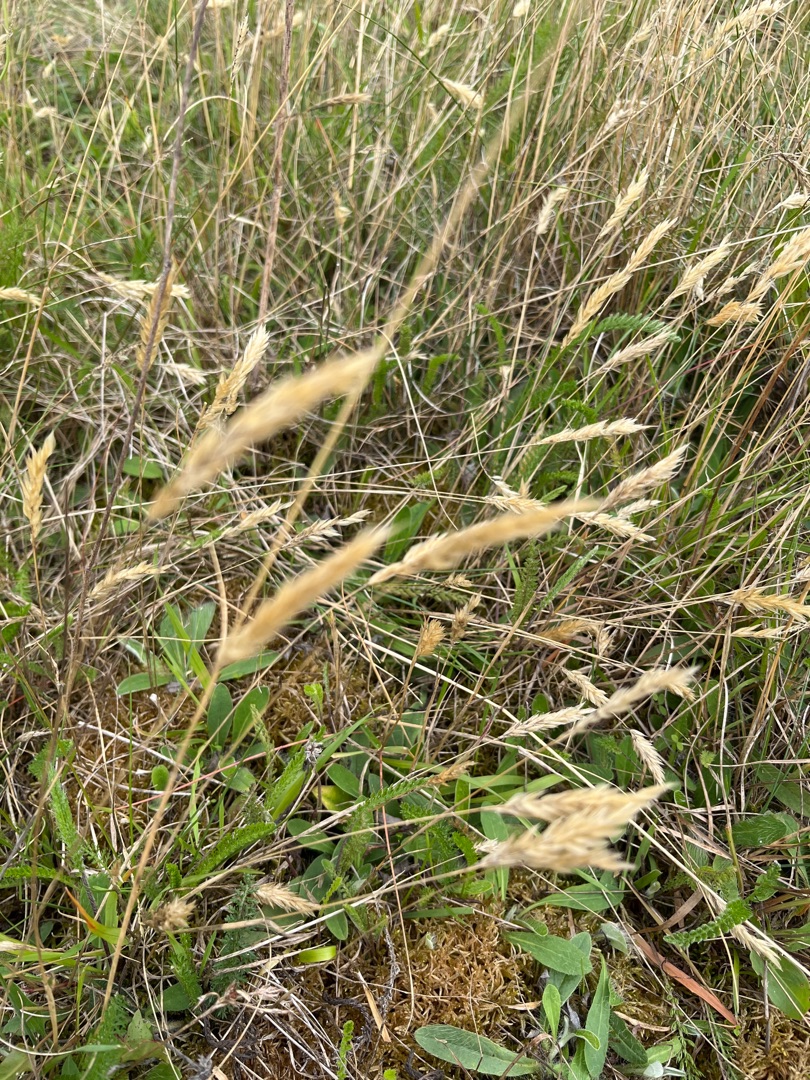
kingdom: Plantae
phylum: Tracheophyta
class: Liliopsida
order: Poales
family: Poaceae
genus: Anthoxanthum
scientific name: Anthoxanthum odoratum
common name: Vellugtende gulaks
